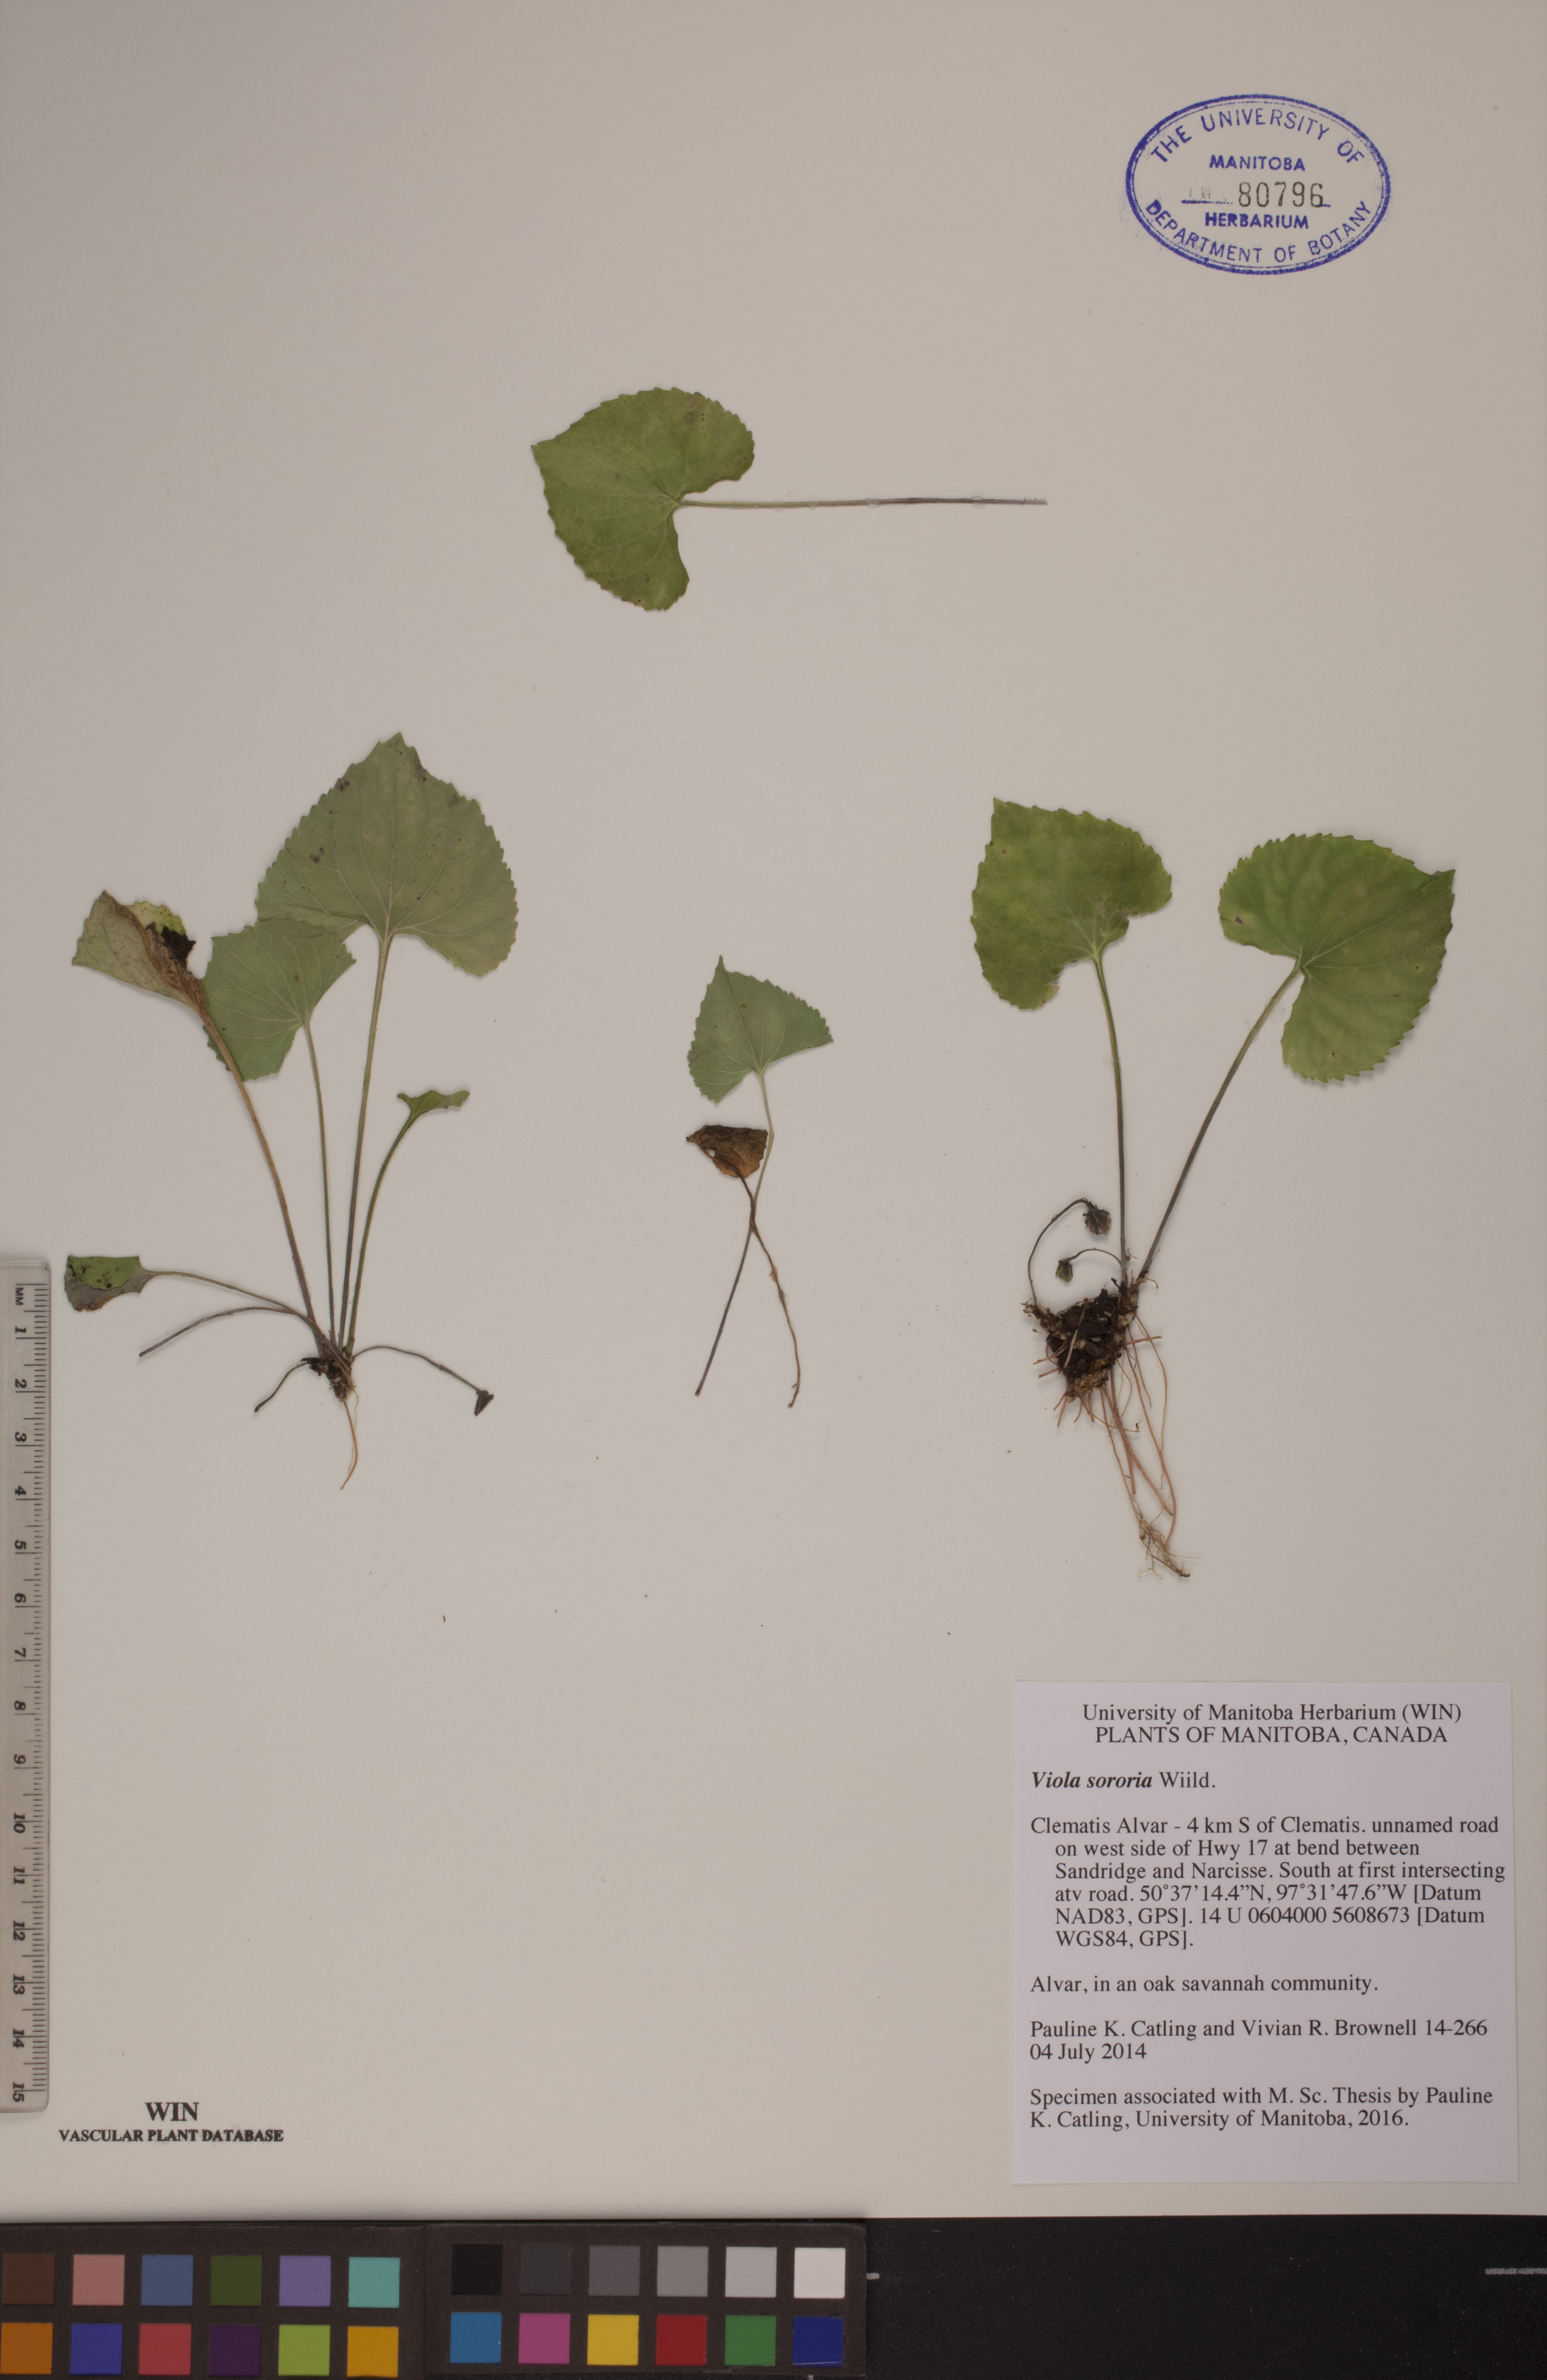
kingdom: Plantae
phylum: Tracheophyta
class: Magnoliopsida
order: Malpighiales
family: Violaceae
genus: Viola
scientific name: Viola sororia
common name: Dooryard violet
